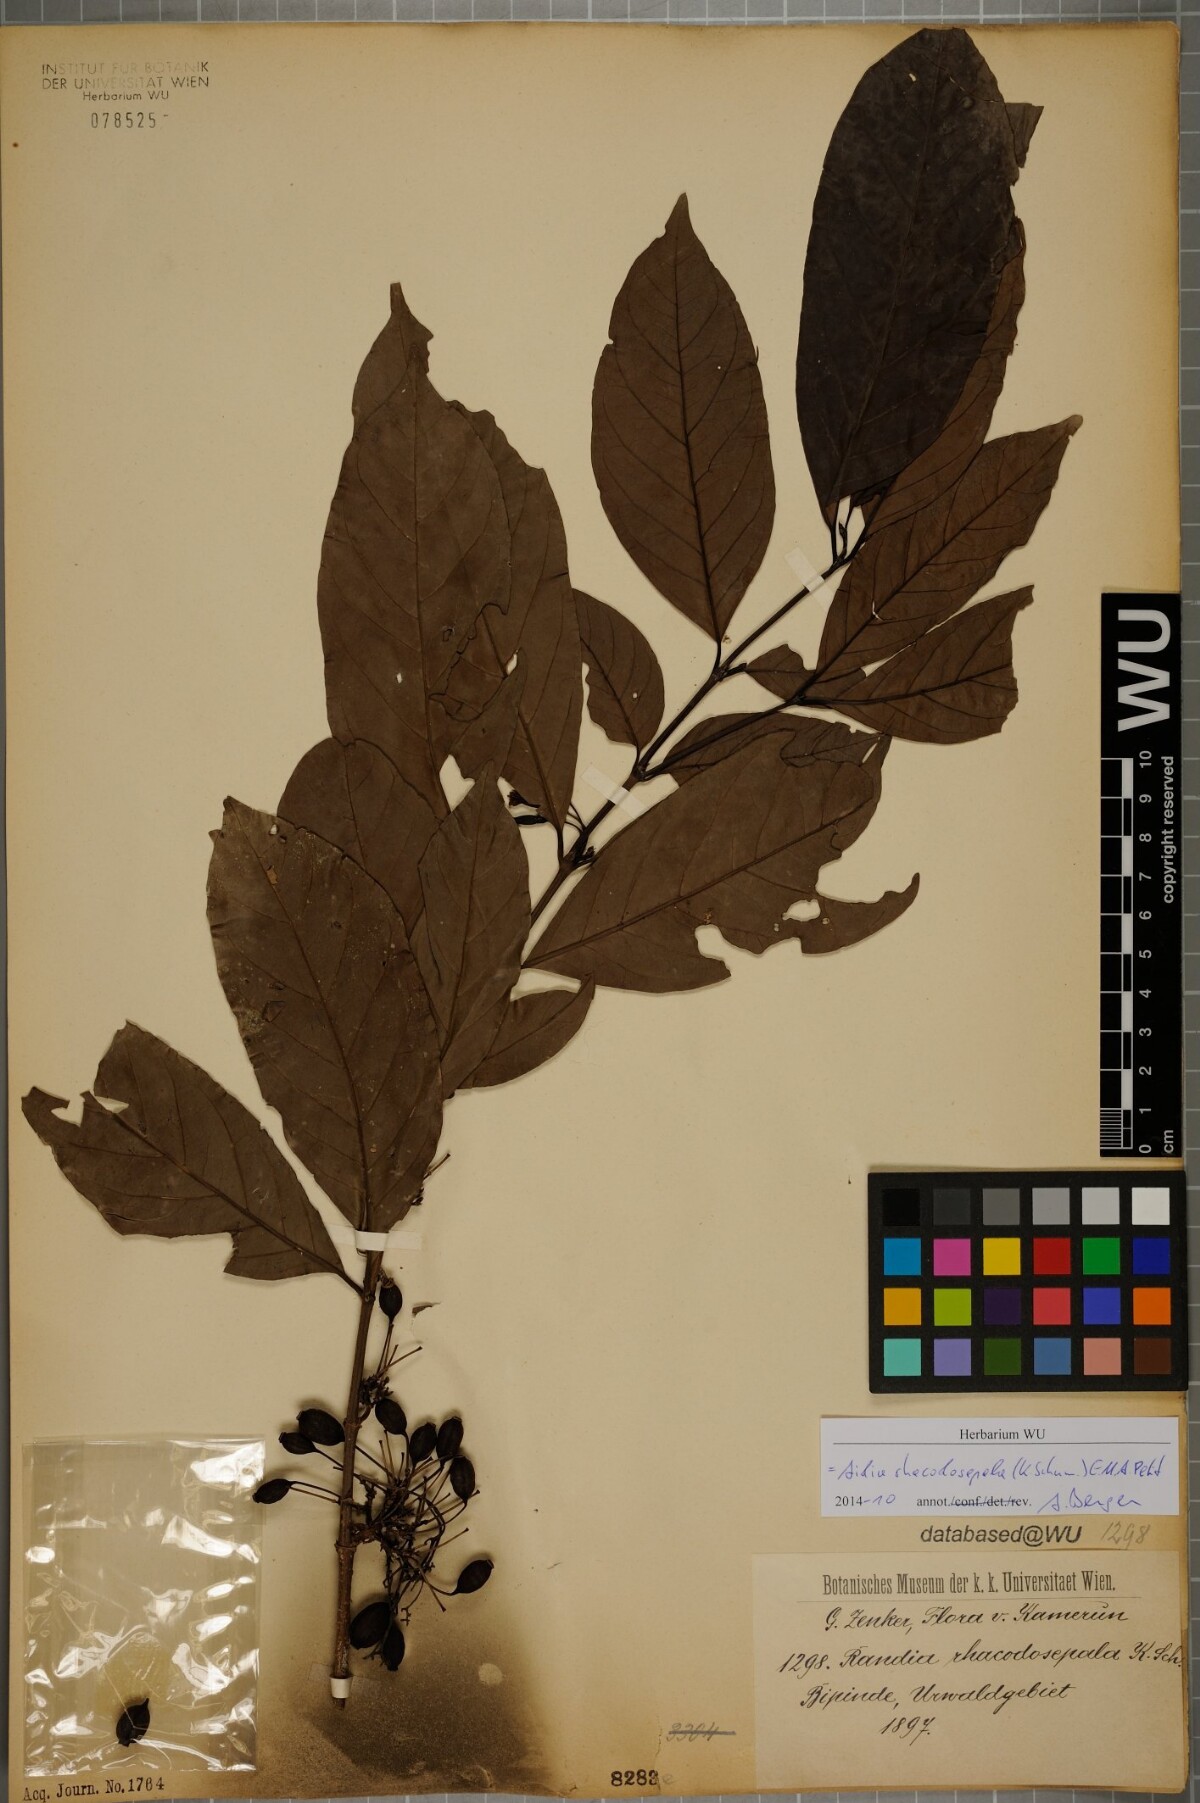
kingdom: Plantae
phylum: Tracheophyta
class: Magnoliopsida
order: Gentianales
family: Rubiaceae
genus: Aidia
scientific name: Aidia rhacodosepala
